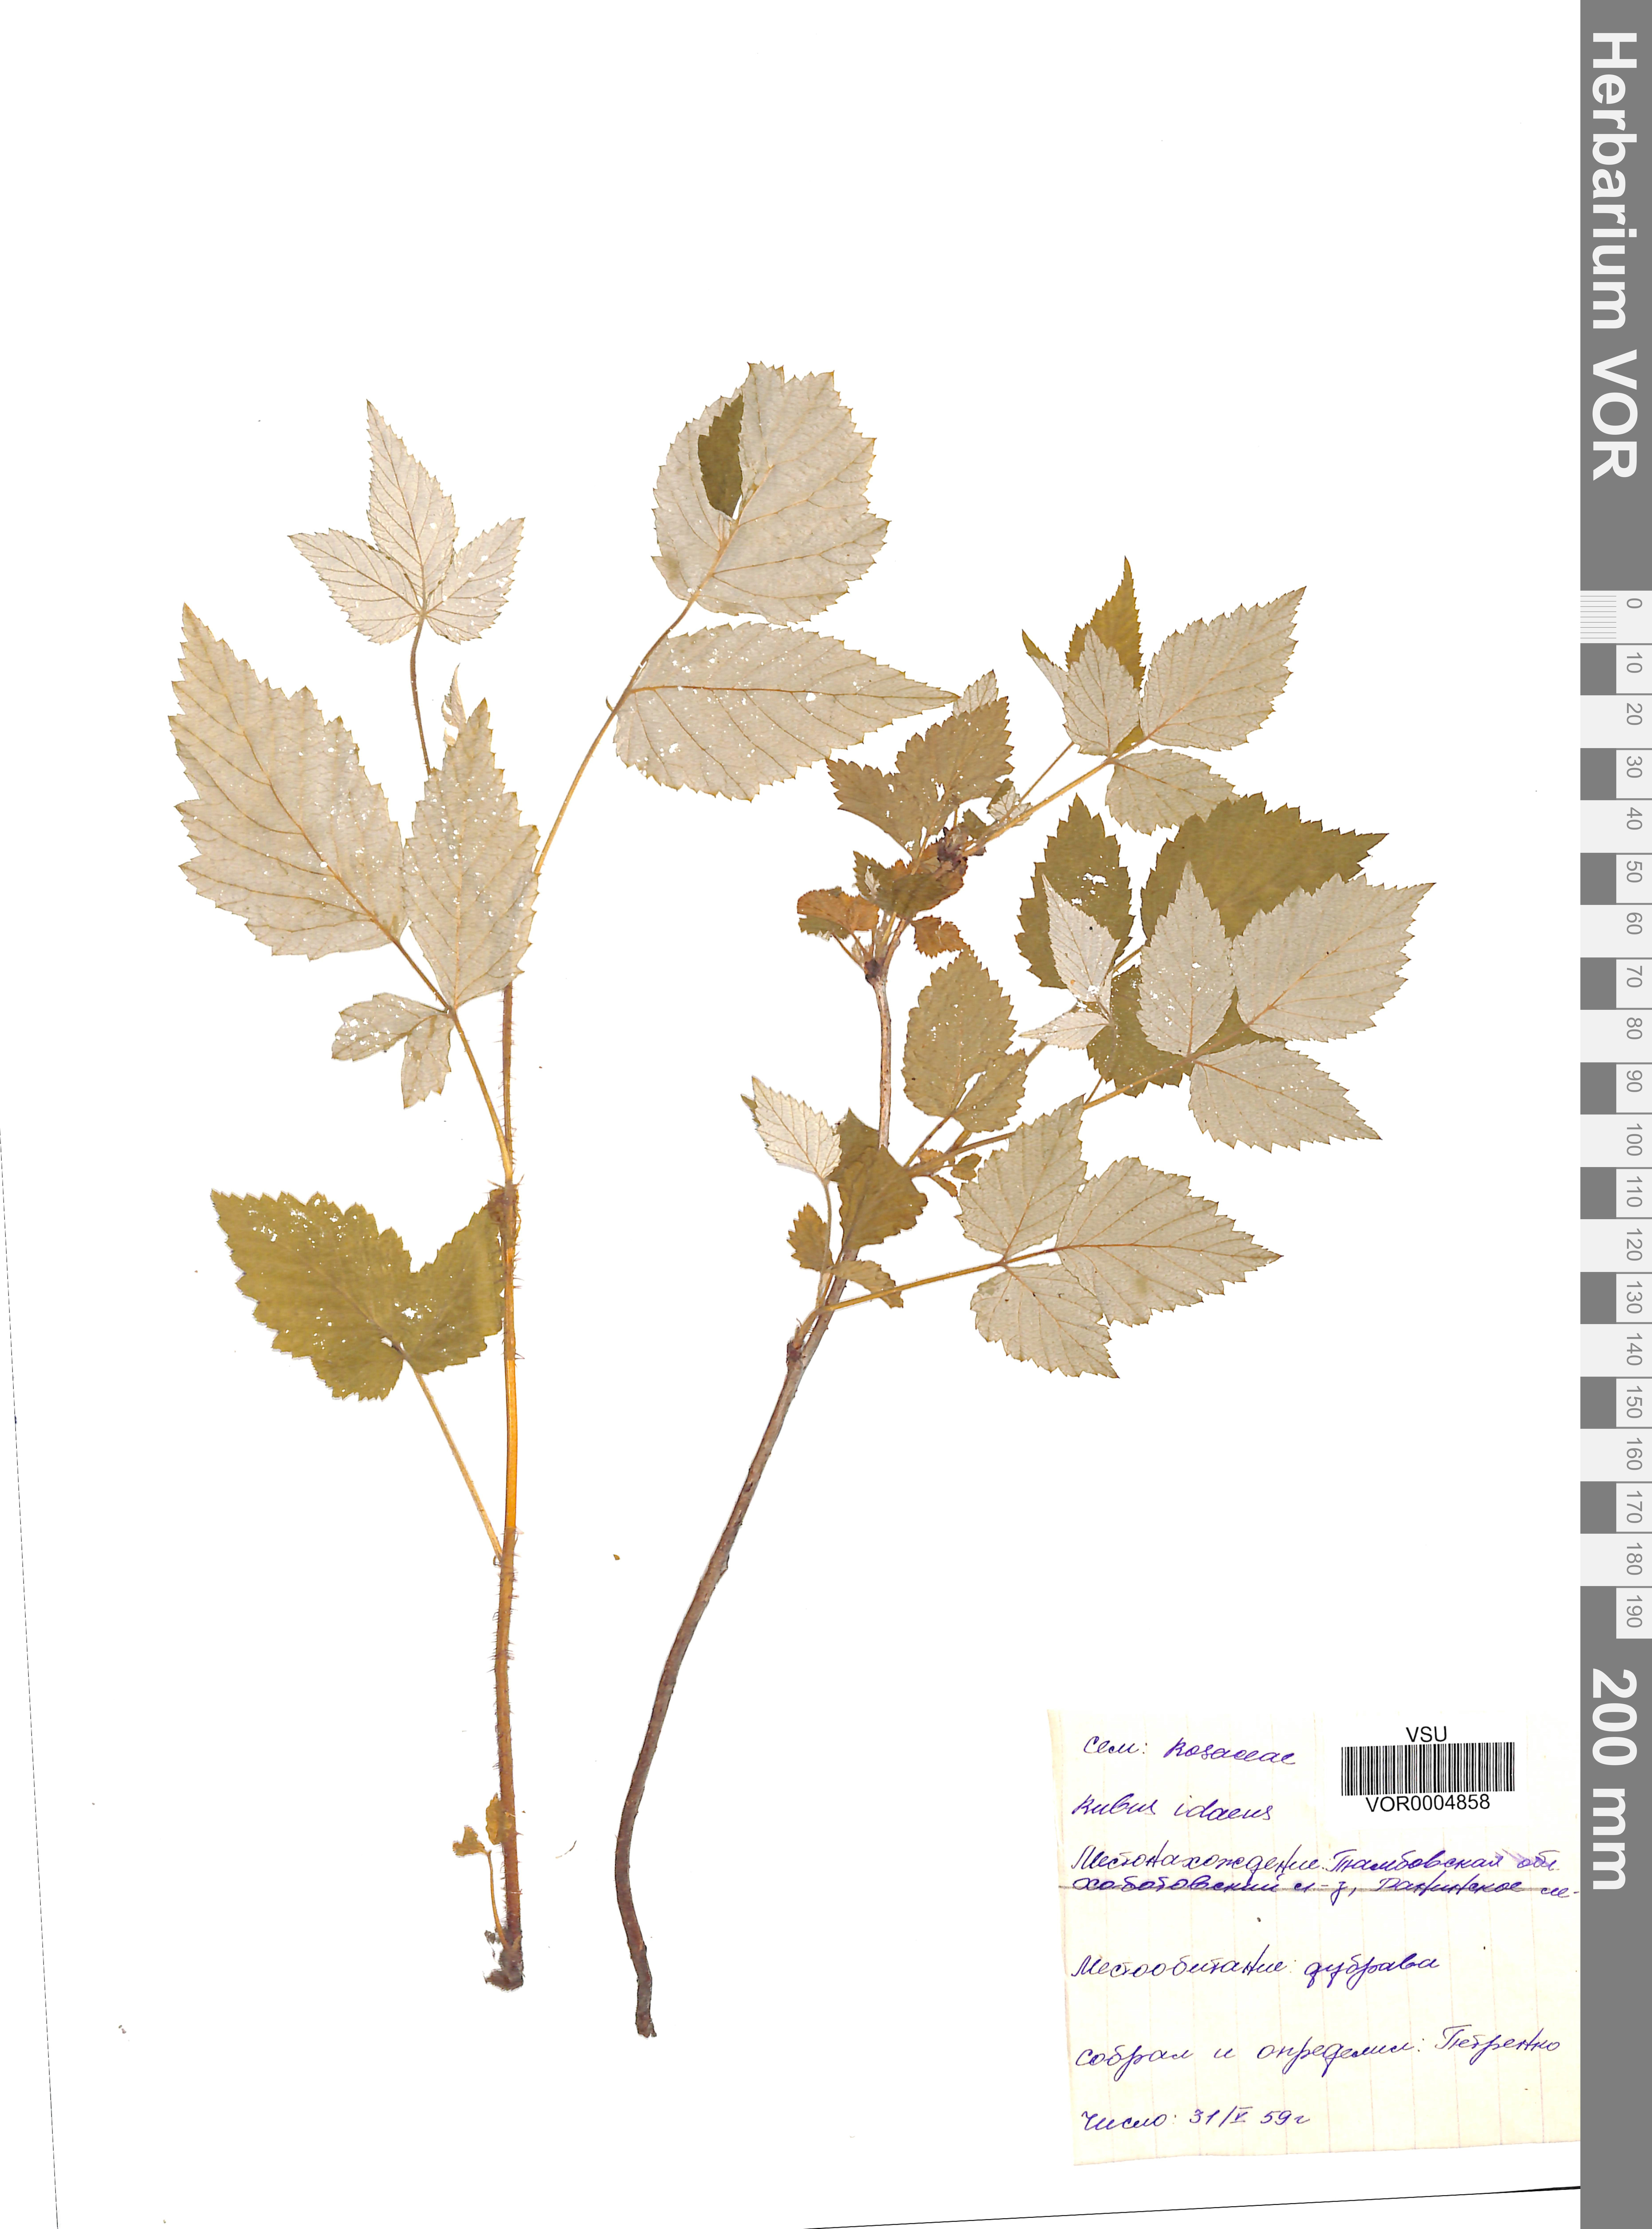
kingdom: Plantae
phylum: Tracheophyta
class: Magnoliopsida
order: Rosales
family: Rosaceae
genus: Rubus
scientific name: Rubus idaeus
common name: Raspberry
